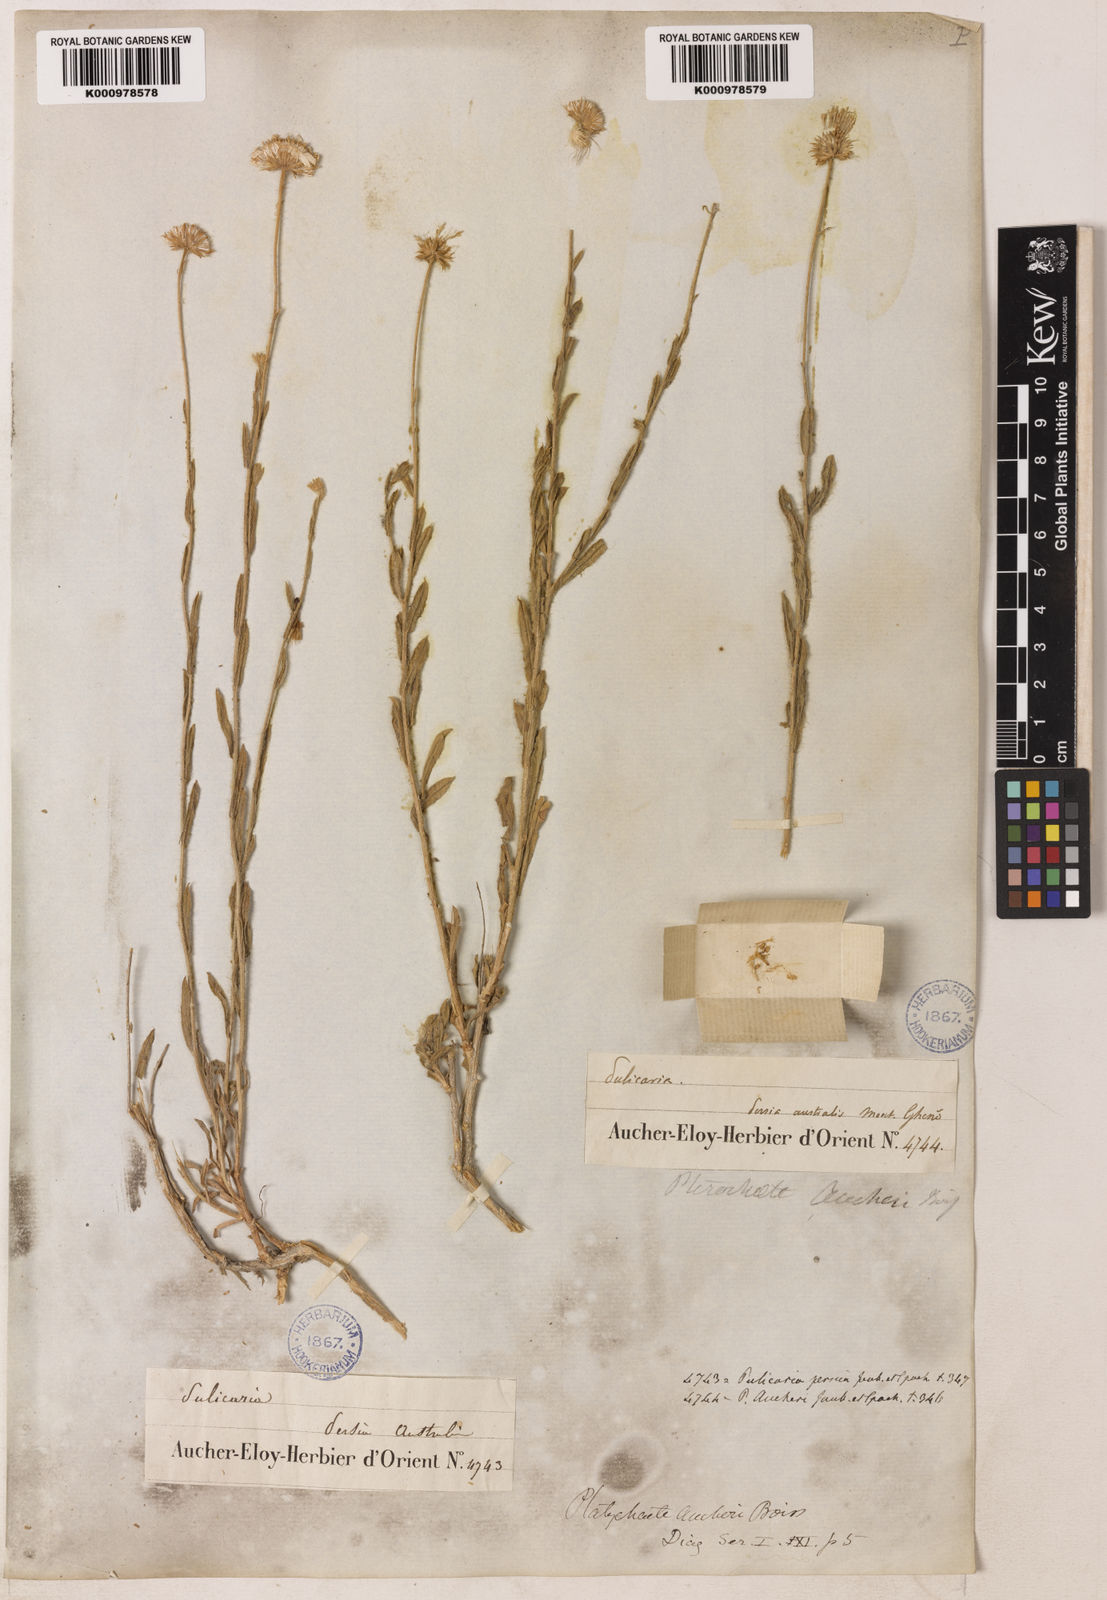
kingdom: Plantae
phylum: Tracheophyta
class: Magnoliopsida
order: Asterales
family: Asteraceae
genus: Pulicaria
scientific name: Pulicaria aucheri
